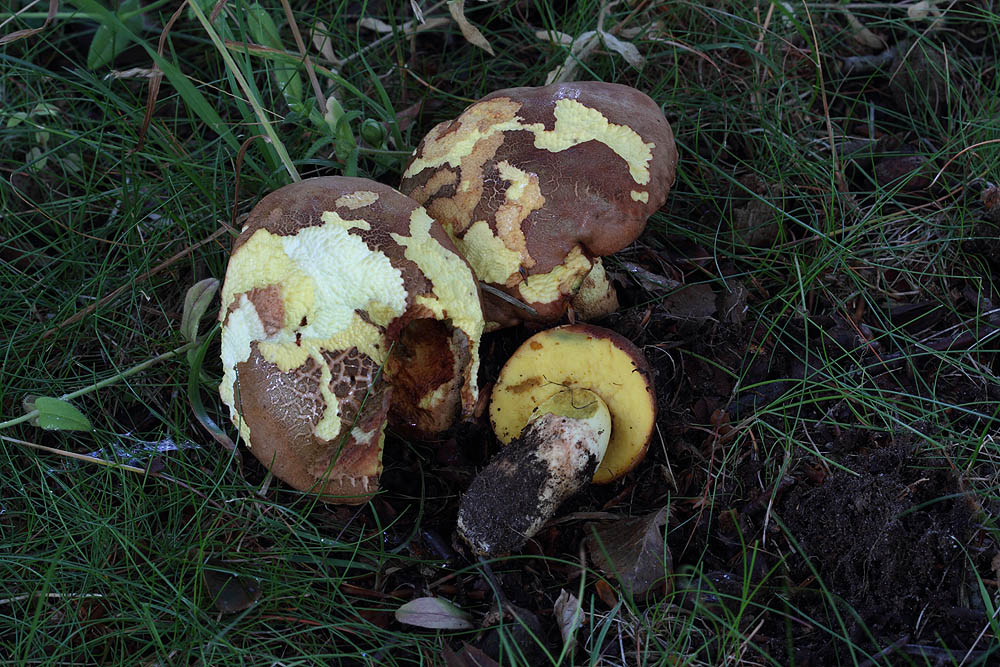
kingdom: Fungi
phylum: Basidiomycota
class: Agaricomycetes
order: Boletales
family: Boletaceae
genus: Butyriboletus
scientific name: Butyriboletus appendiculatus
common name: tenstokket rørhat
